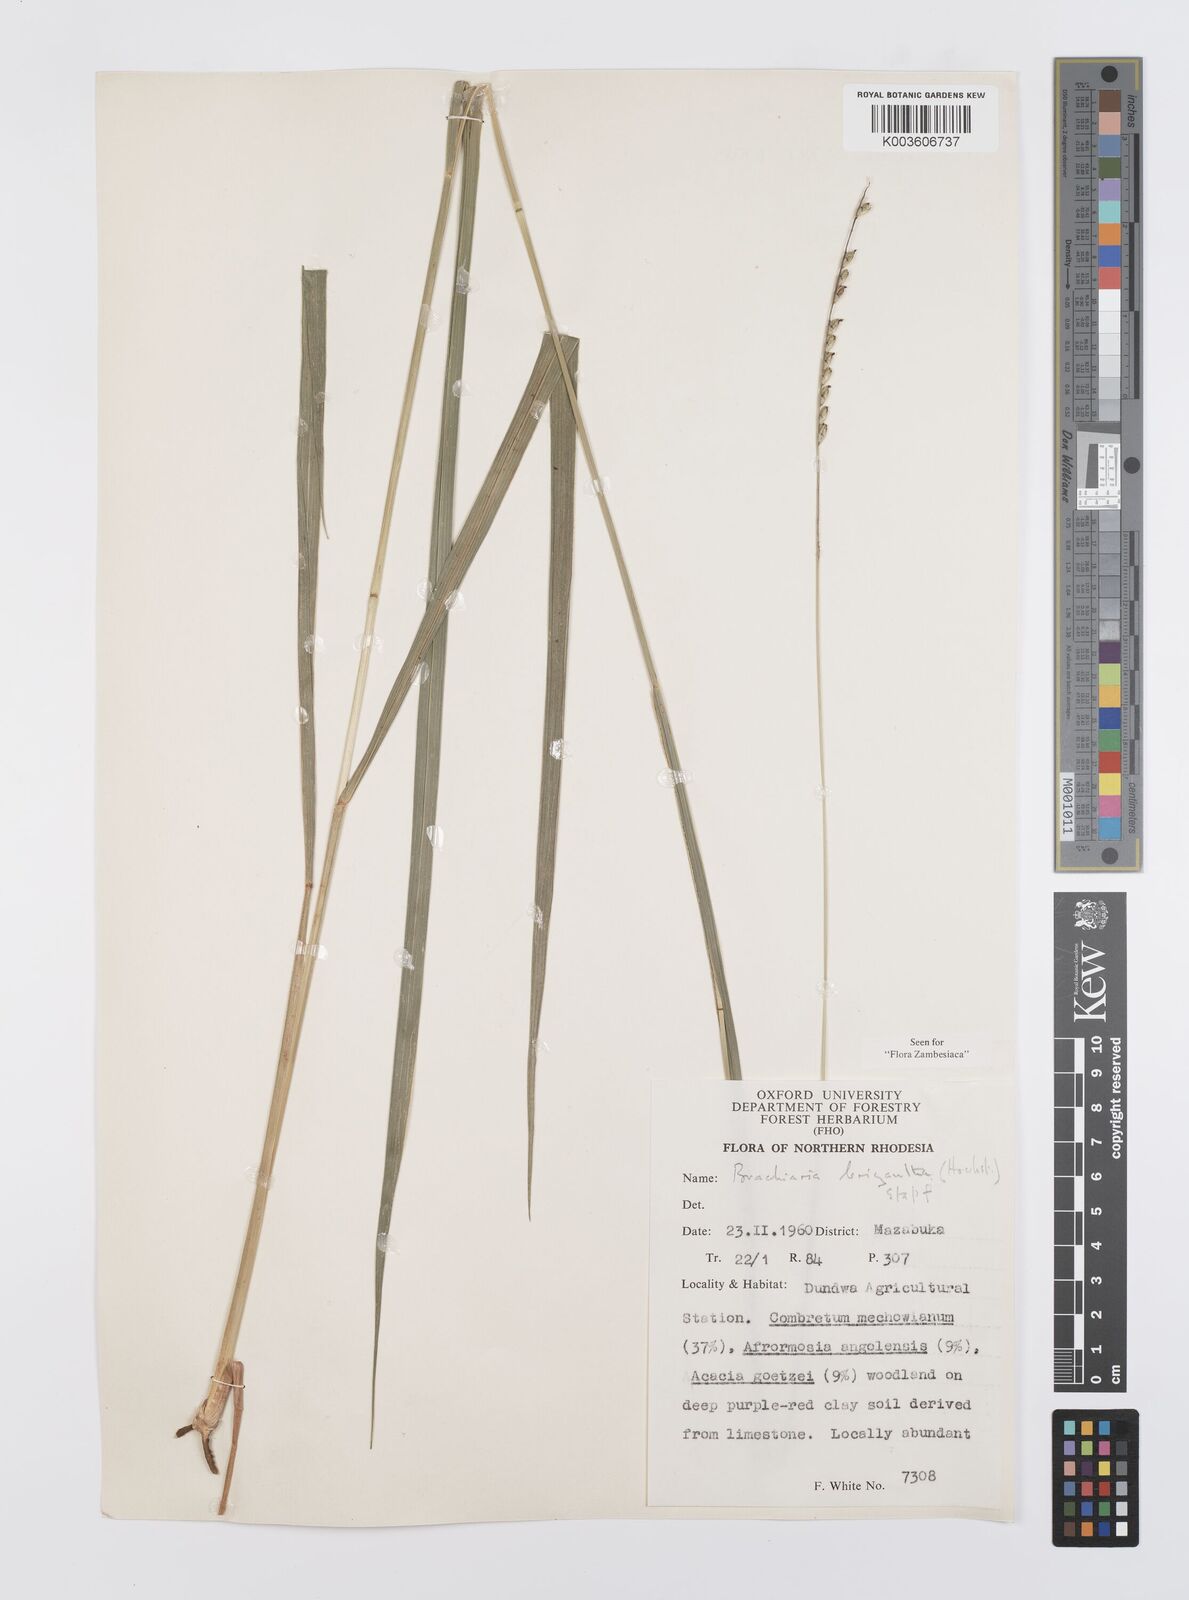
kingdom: Plantae
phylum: Tracheophyta
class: Liliopsida
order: Poales
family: Poaceae
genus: Urochloa
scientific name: Urochloa brizantha
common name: Palisade signalgrass
